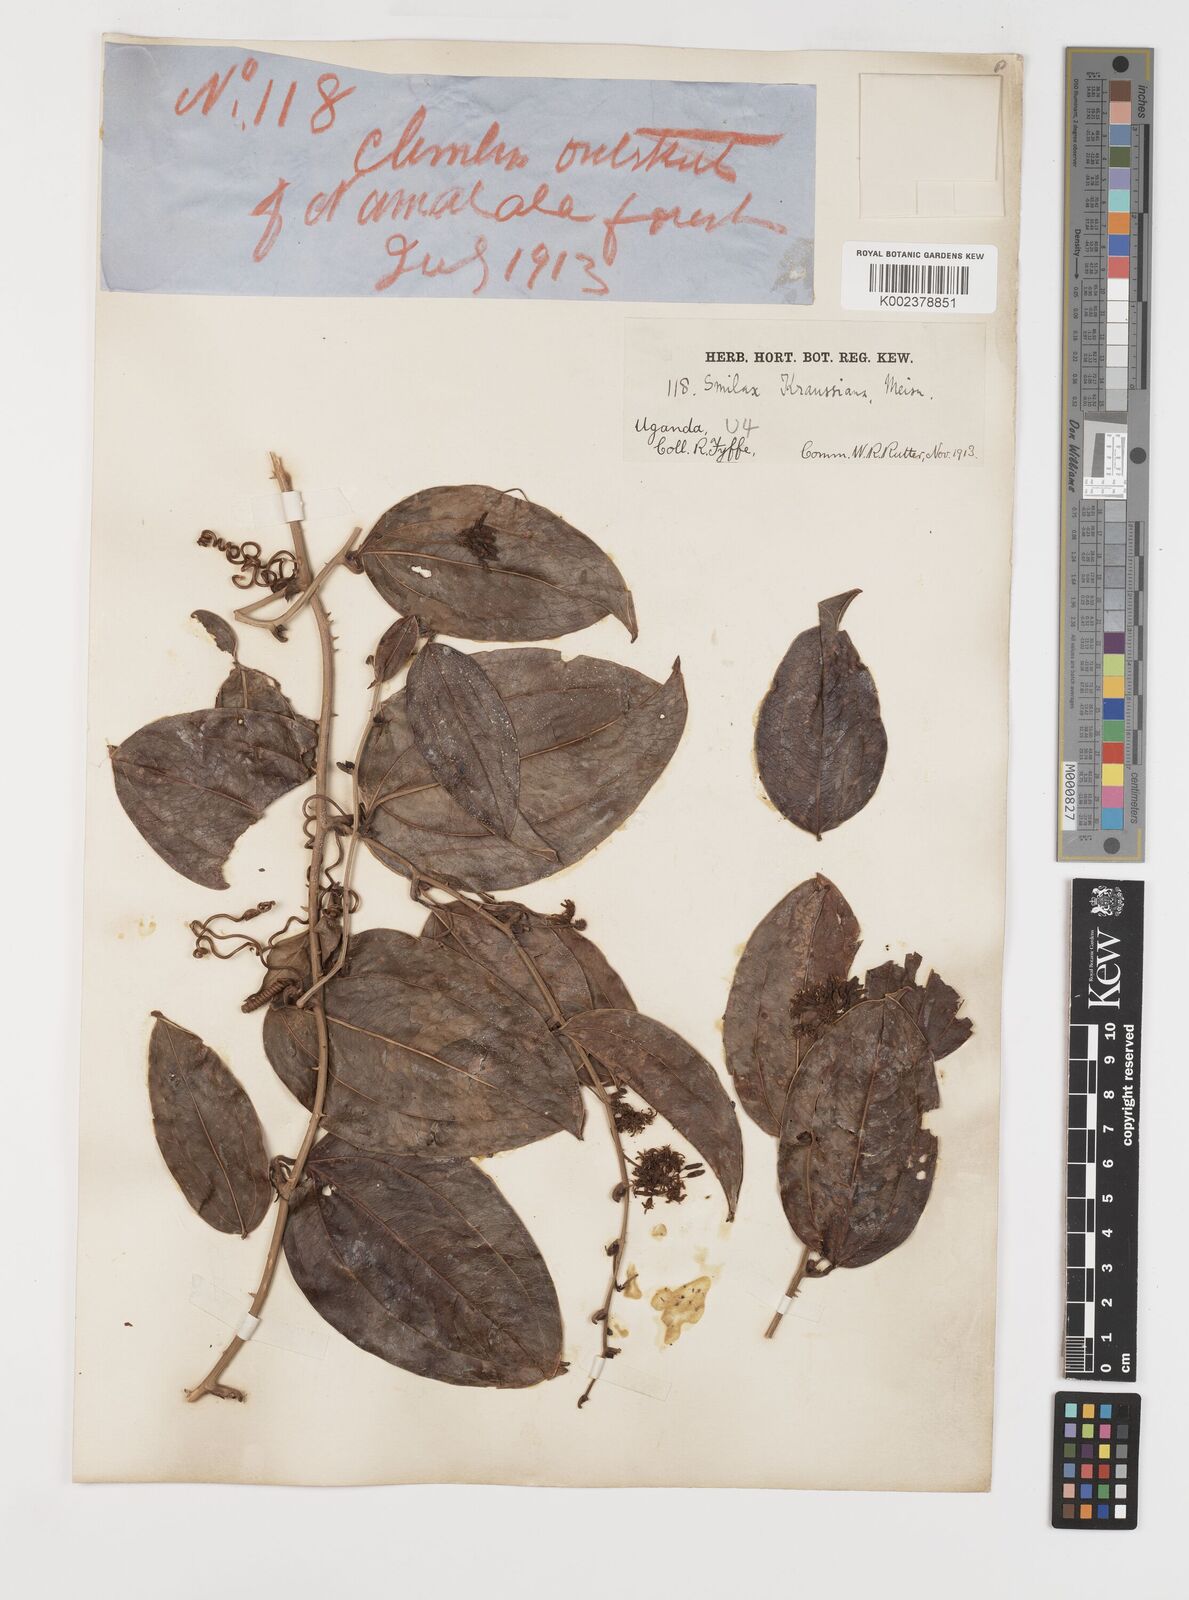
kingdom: Plantae
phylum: Tracheophyta
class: Liliopsida
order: Liliales
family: Smilacaceae
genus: Smilax
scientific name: Smilax anceps
